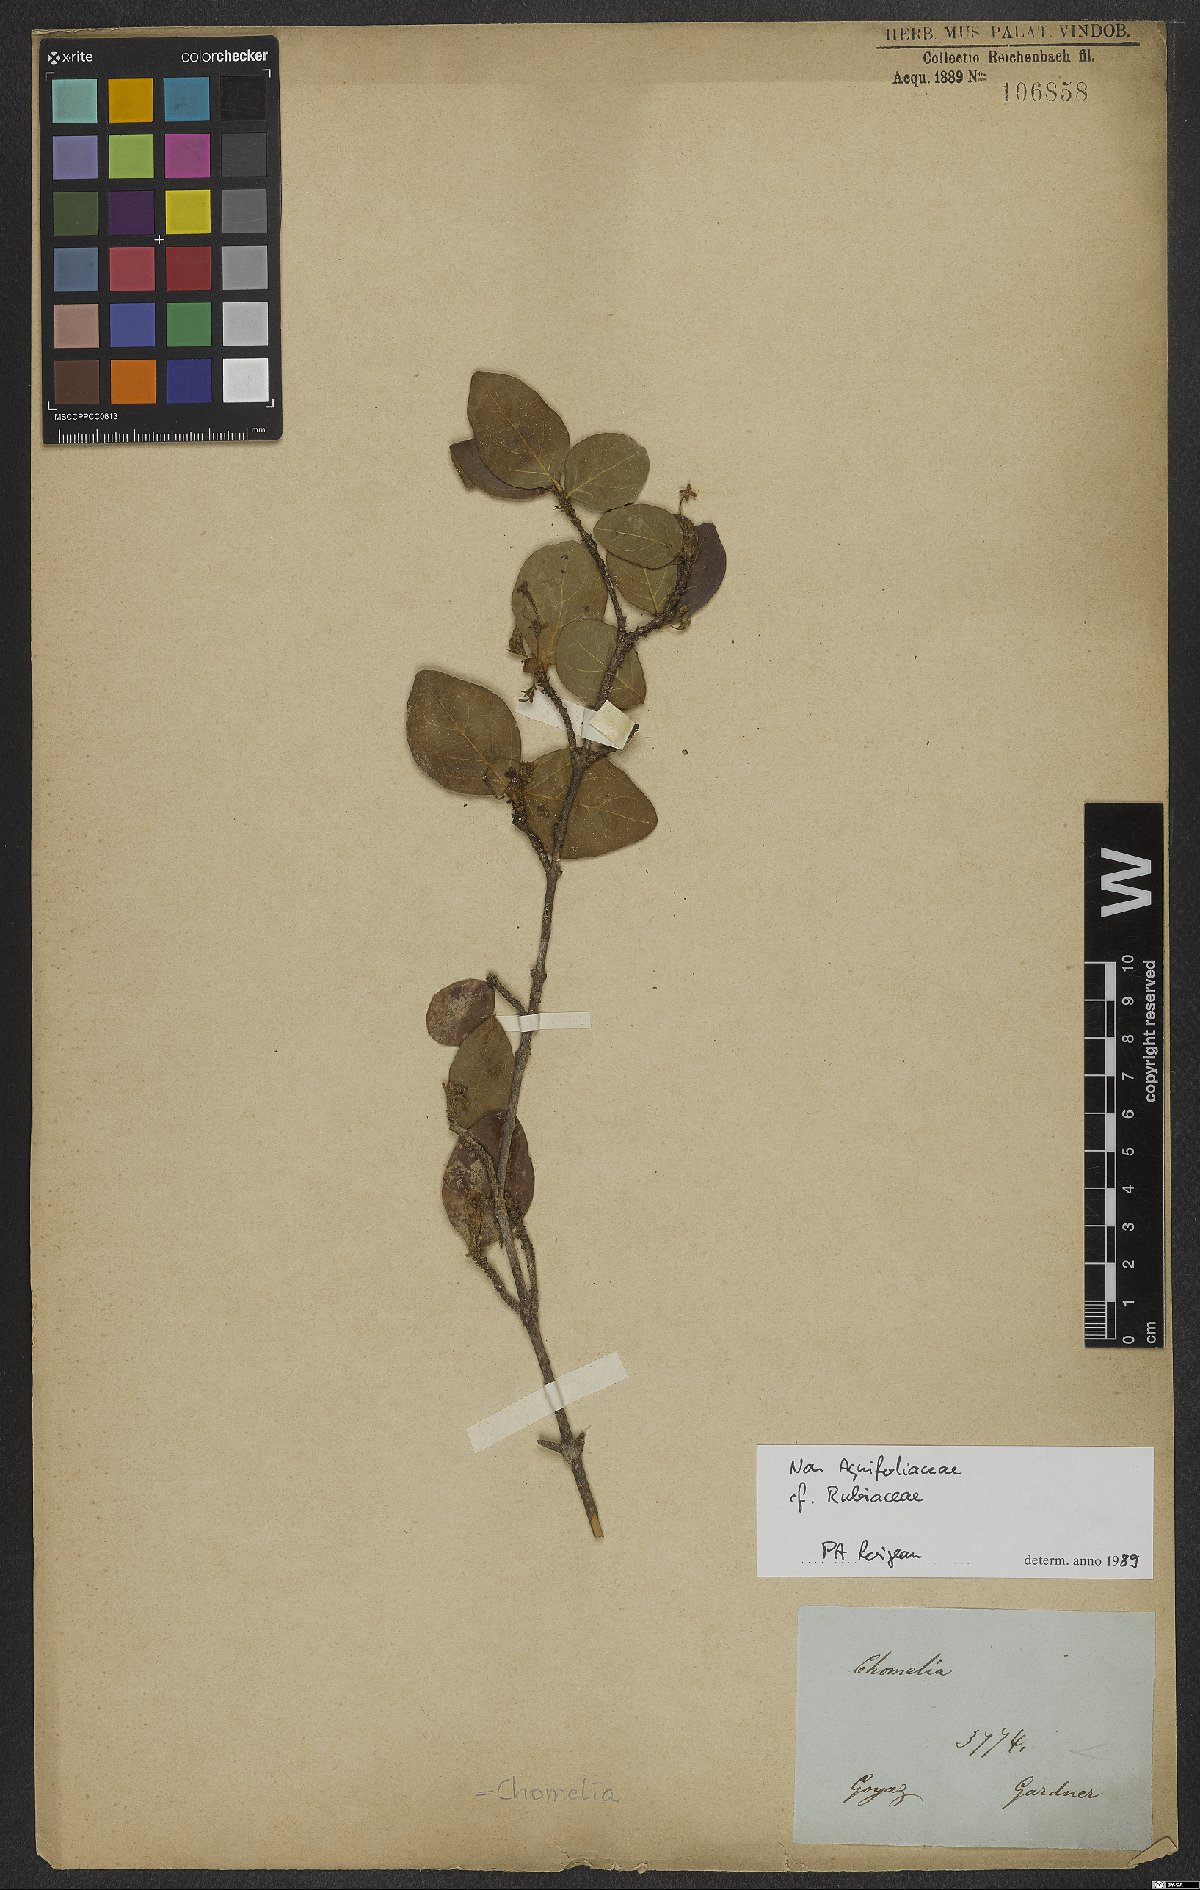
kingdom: Plantae
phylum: Tracheophyta
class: Magnoliopsida
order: Gentianales
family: Rubiaceae
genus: Chomelia
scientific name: Chomelia
